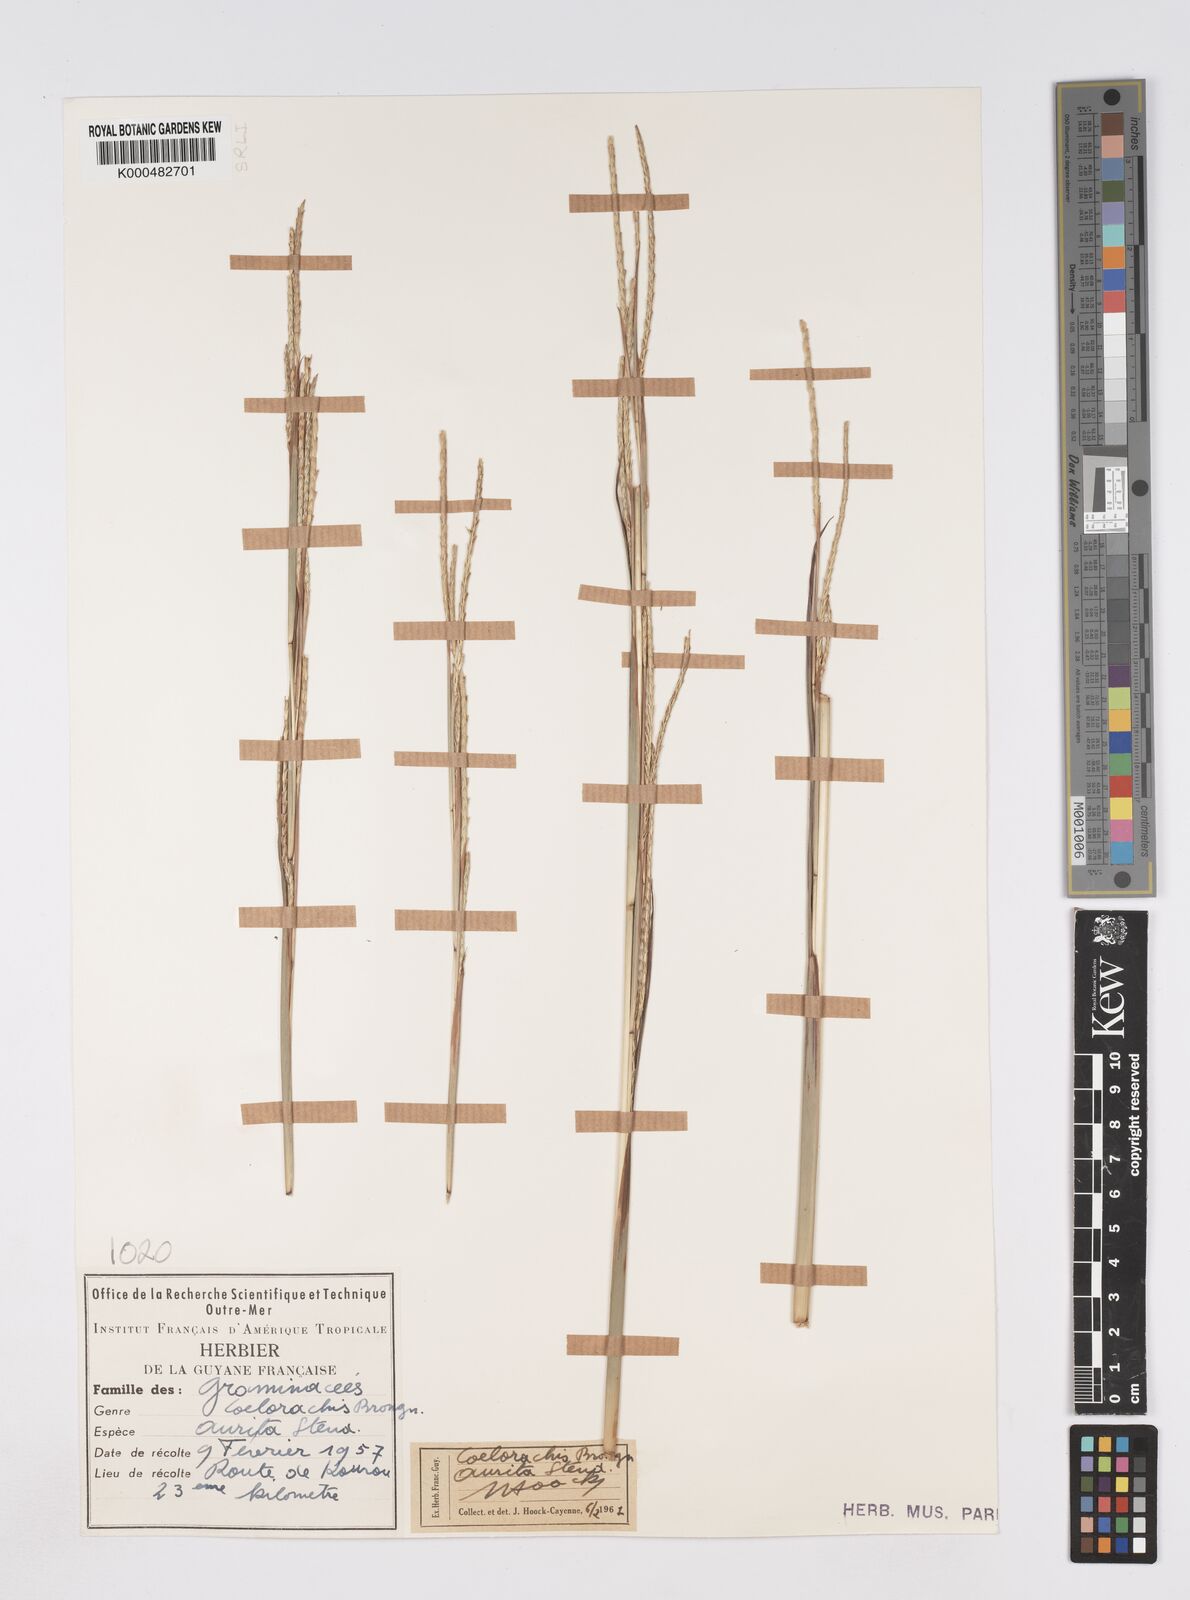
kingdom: Plantae
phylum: Tracheophyta
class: Liliopsida
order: Poales
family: Poaceae
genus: Rottboellia
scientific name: Rottboellia aurita
